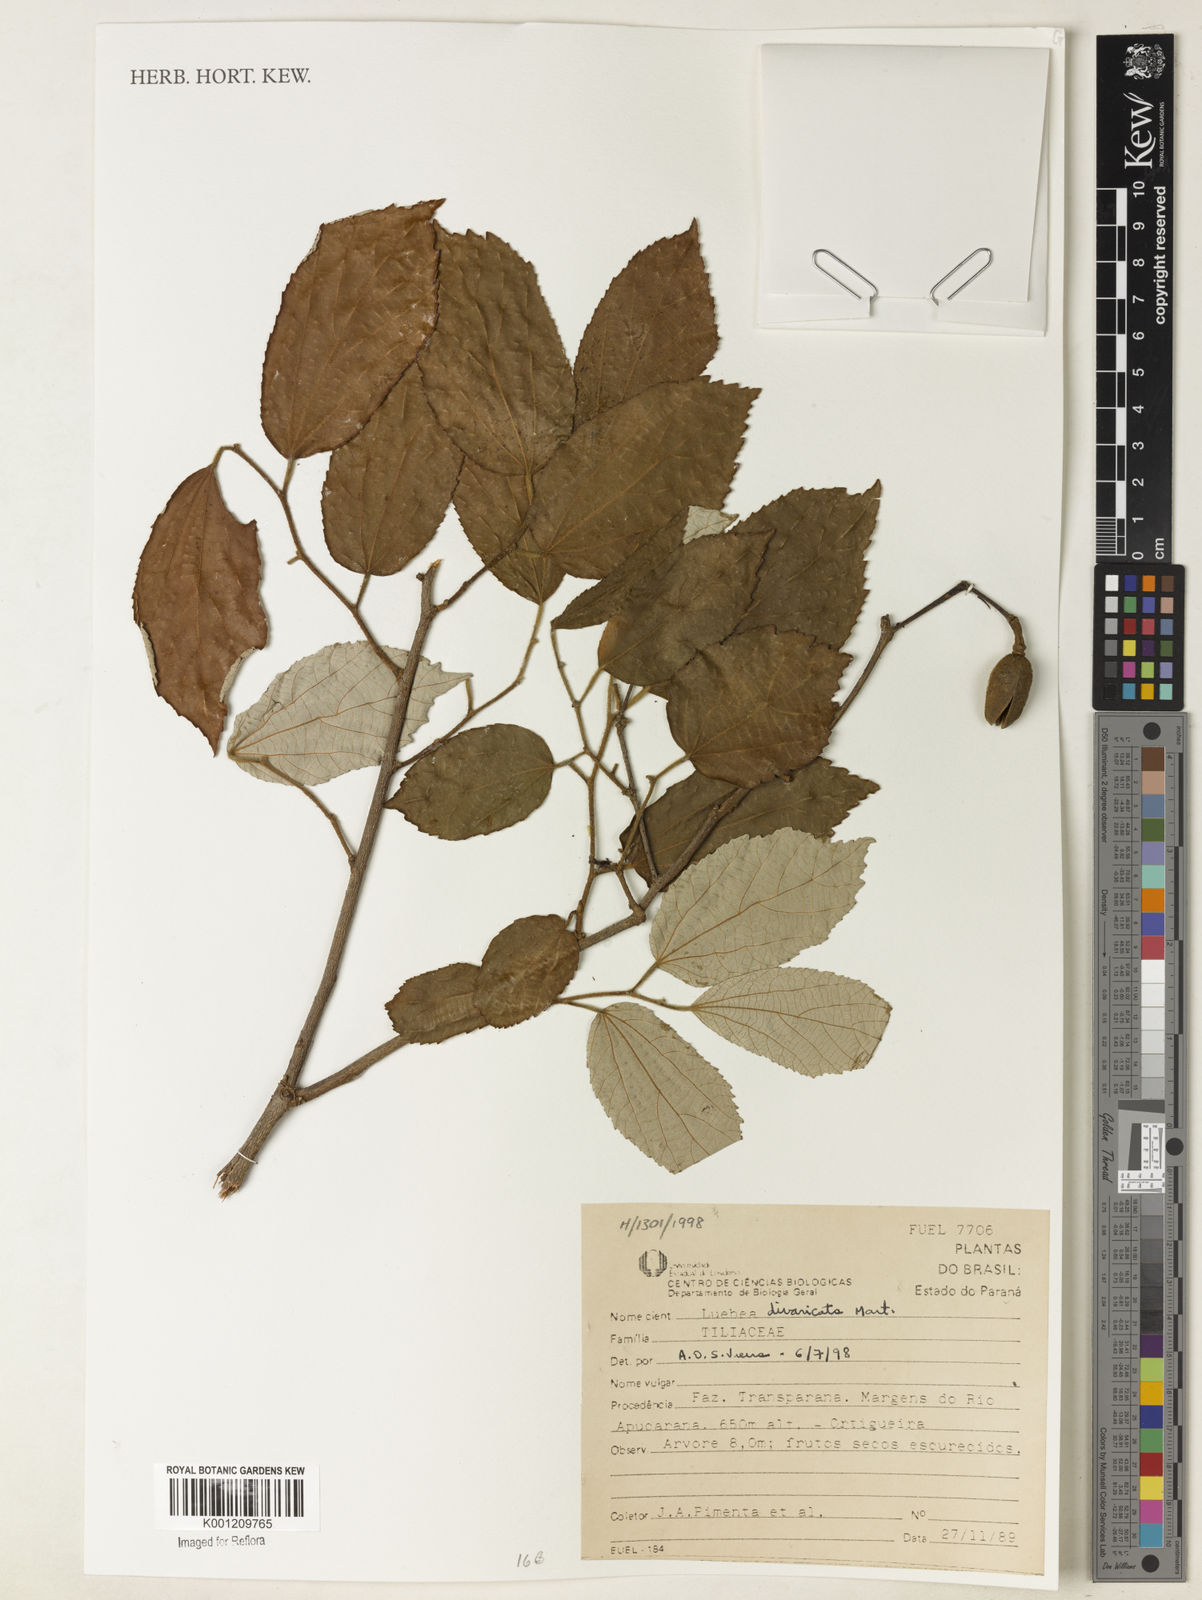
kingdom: Plantae
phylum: Tracheophyta
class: Magnoliopsida
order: Malvales
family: Malvaceae
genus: Luehea
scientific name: Luehea divaricata
